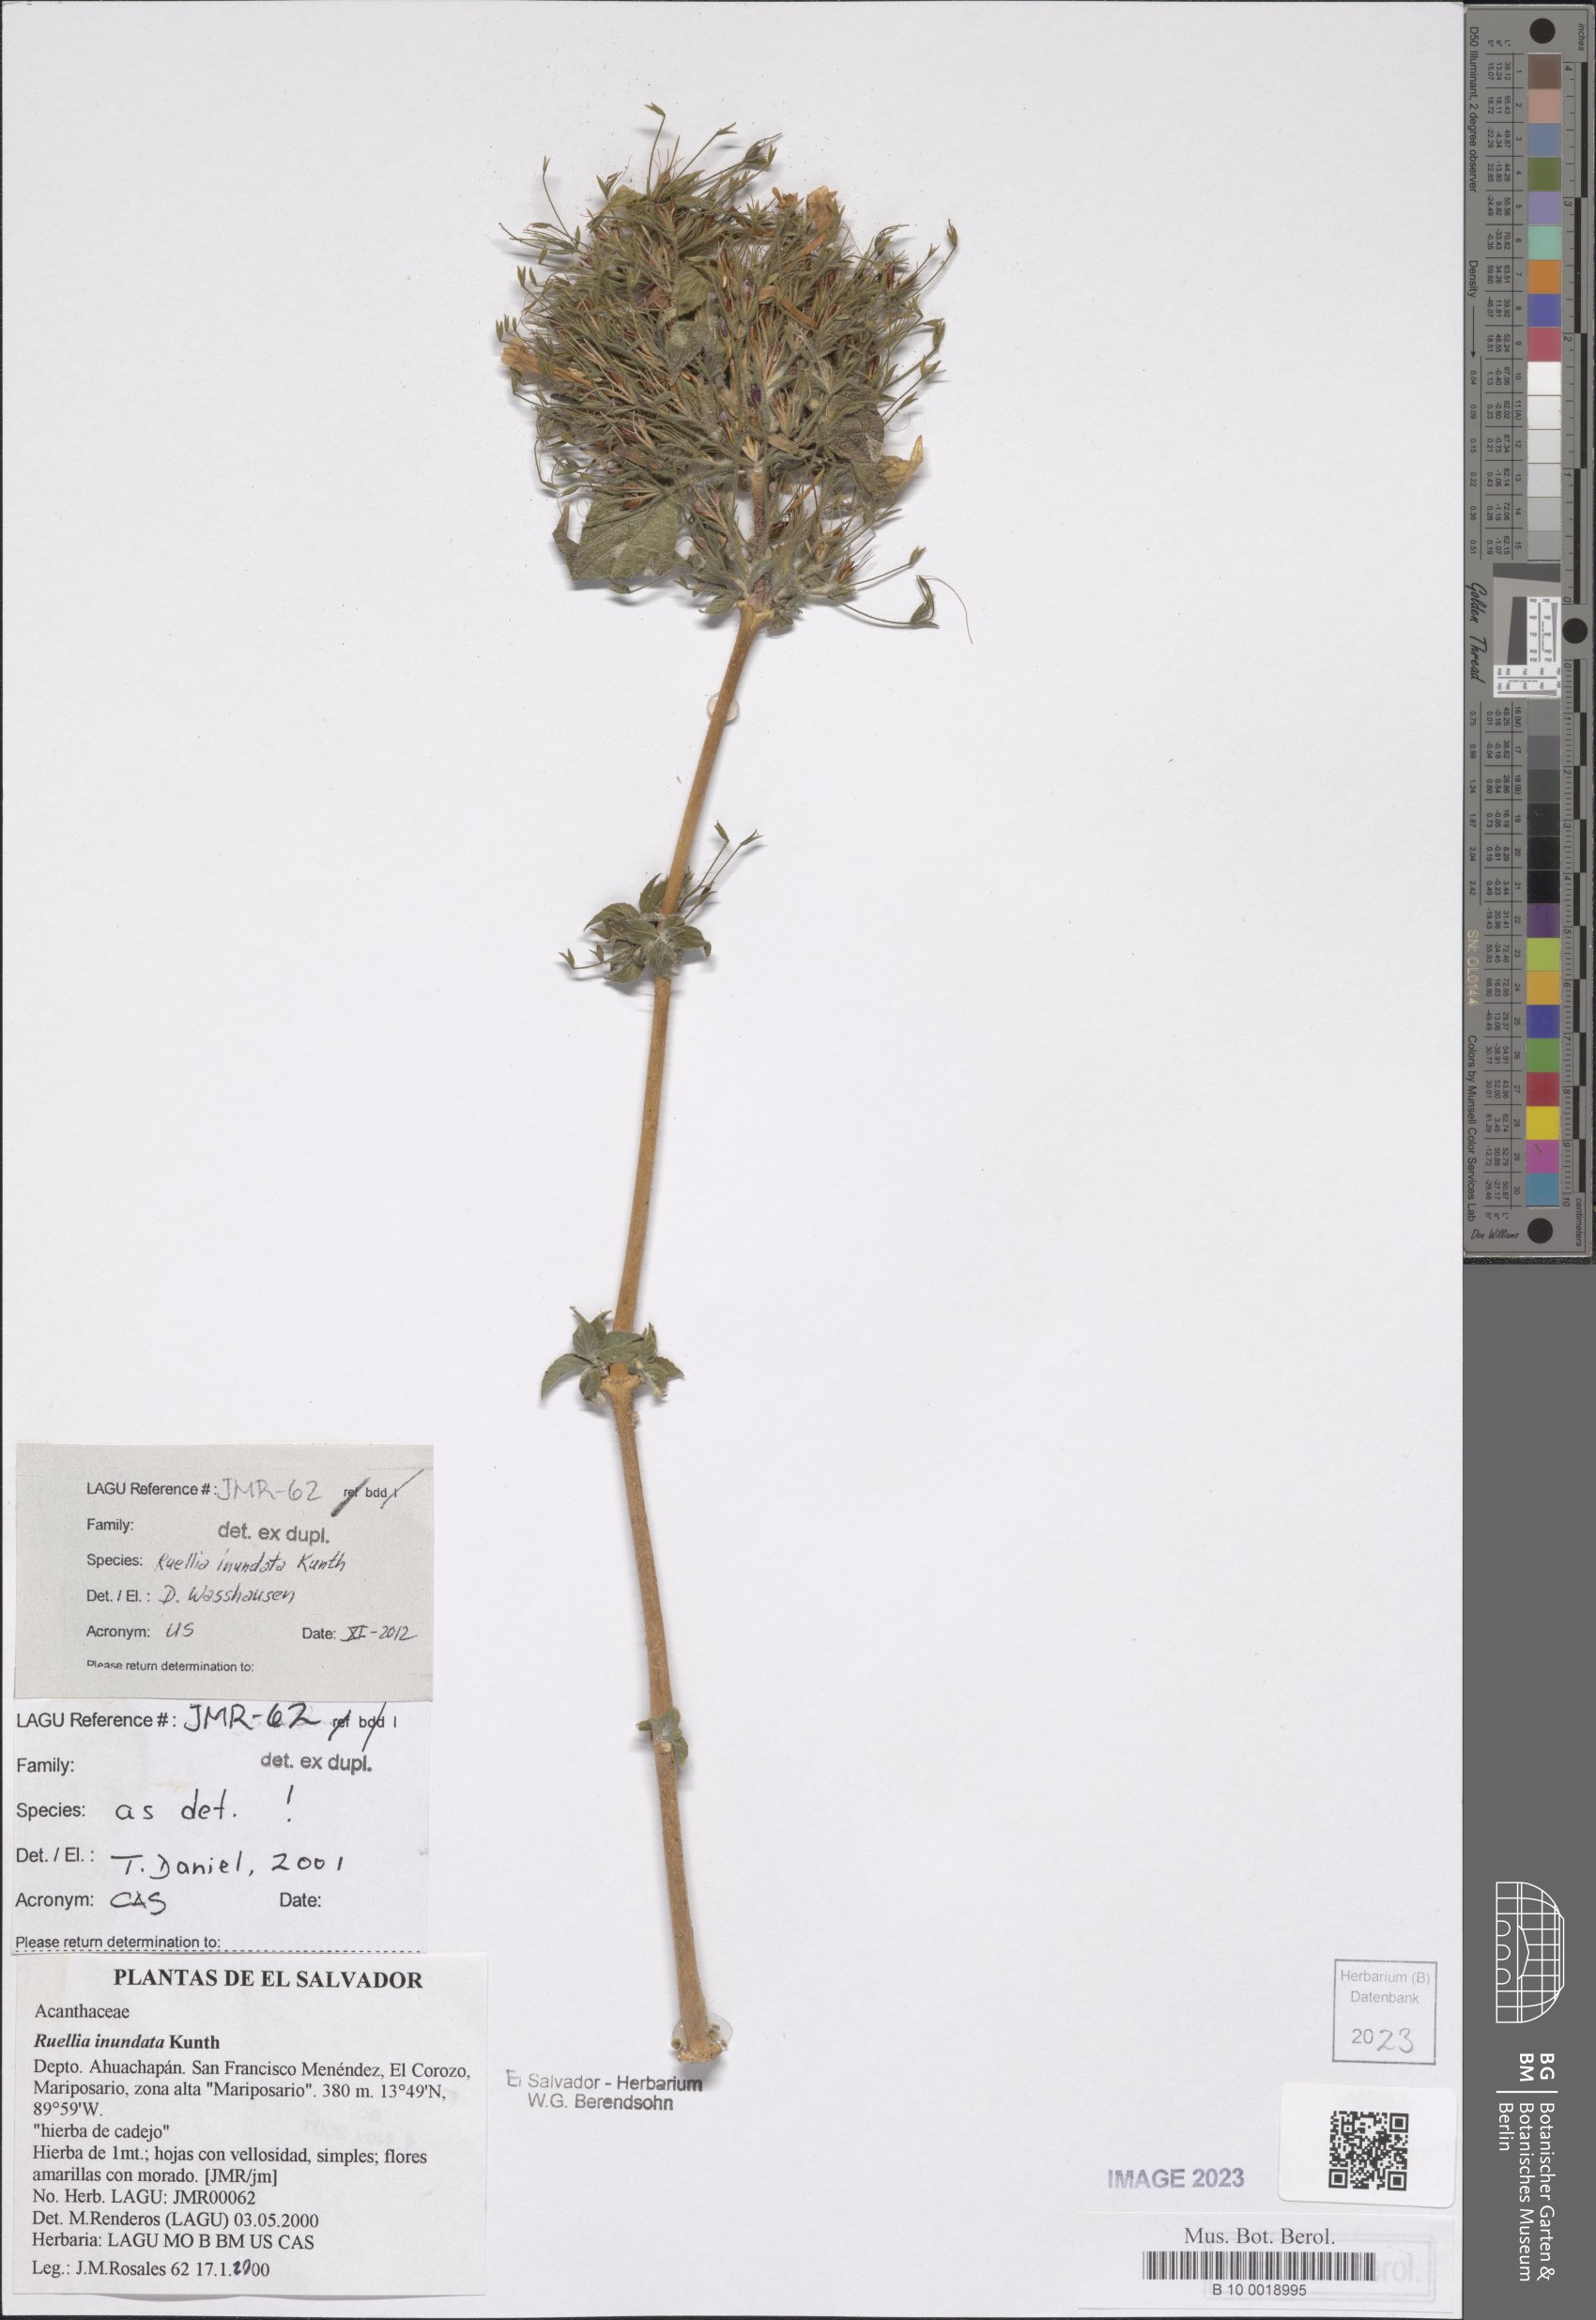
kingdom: Plantae
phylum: Tracheophyta
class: Magnoliopsida
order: Lamiales
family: Acanthaceae
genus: Ruellia
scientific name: Ruellia inundata
